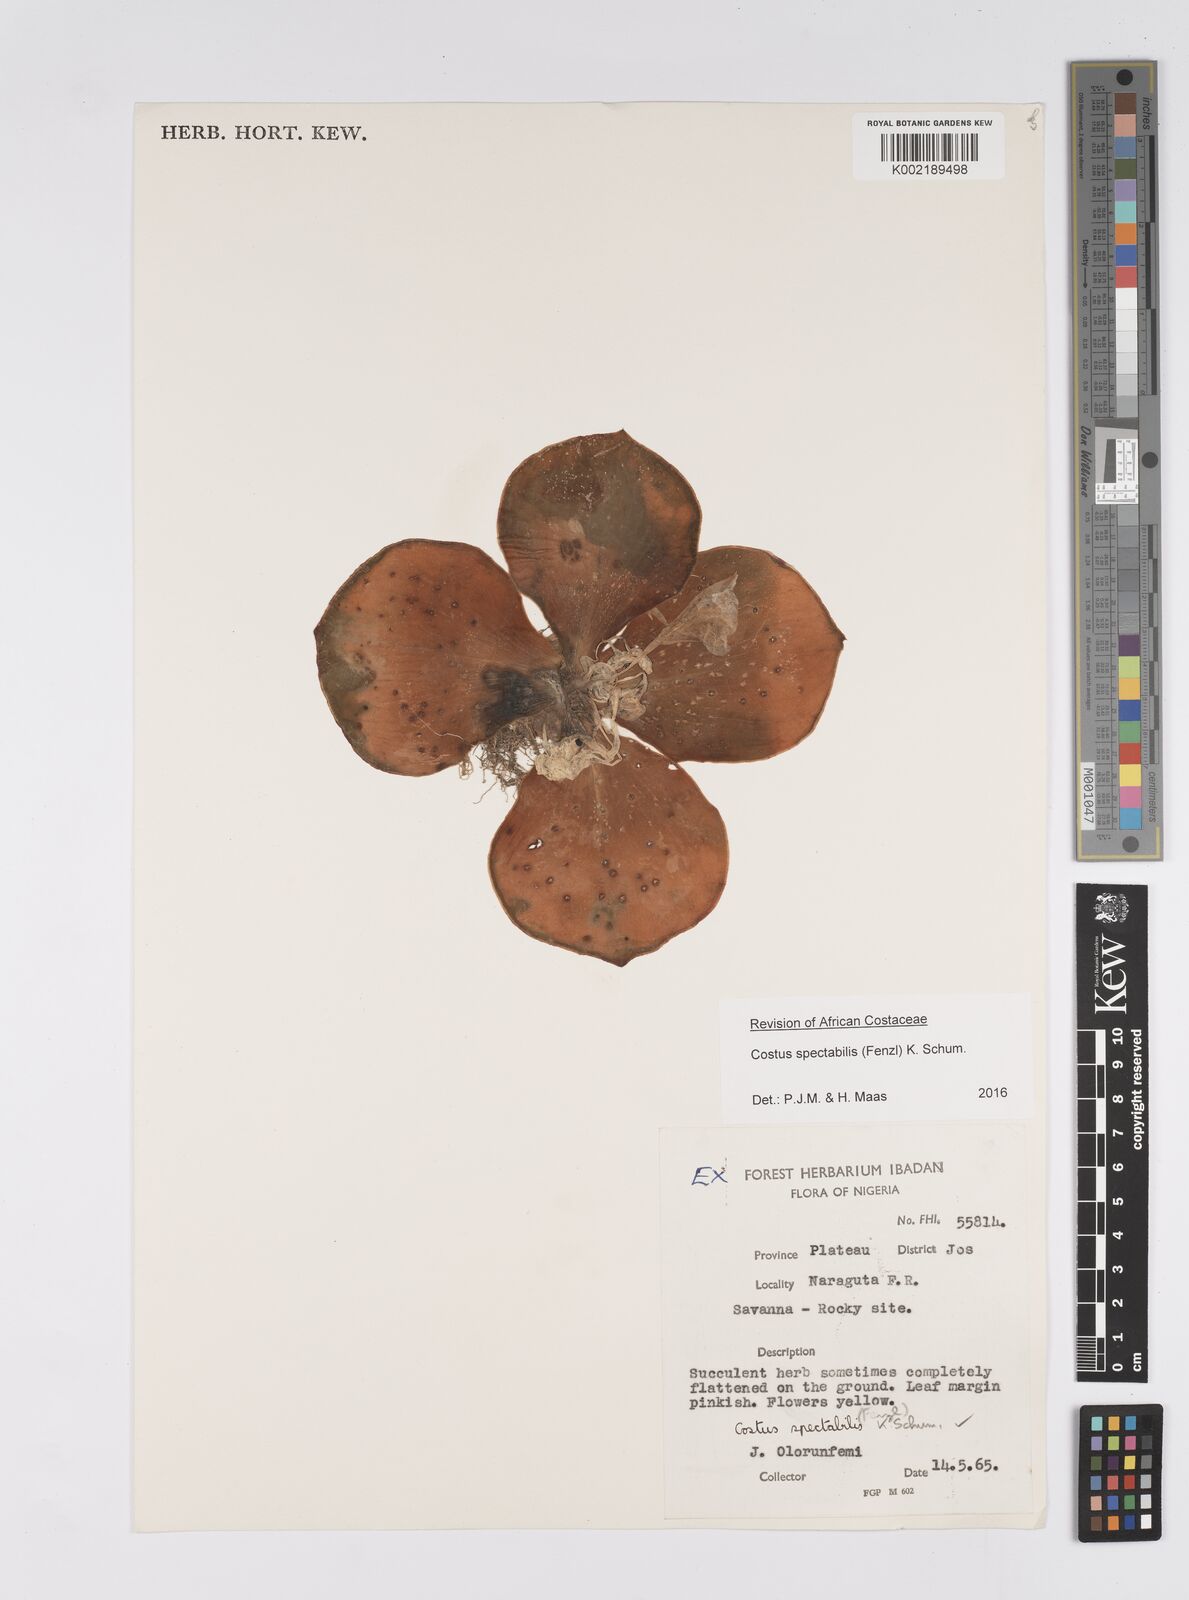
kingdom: Plantae
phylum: Tracheophyta
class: Liliopsida
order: Zingiberales
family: Costaceae
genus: Costus
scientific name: Costus spectabilis
